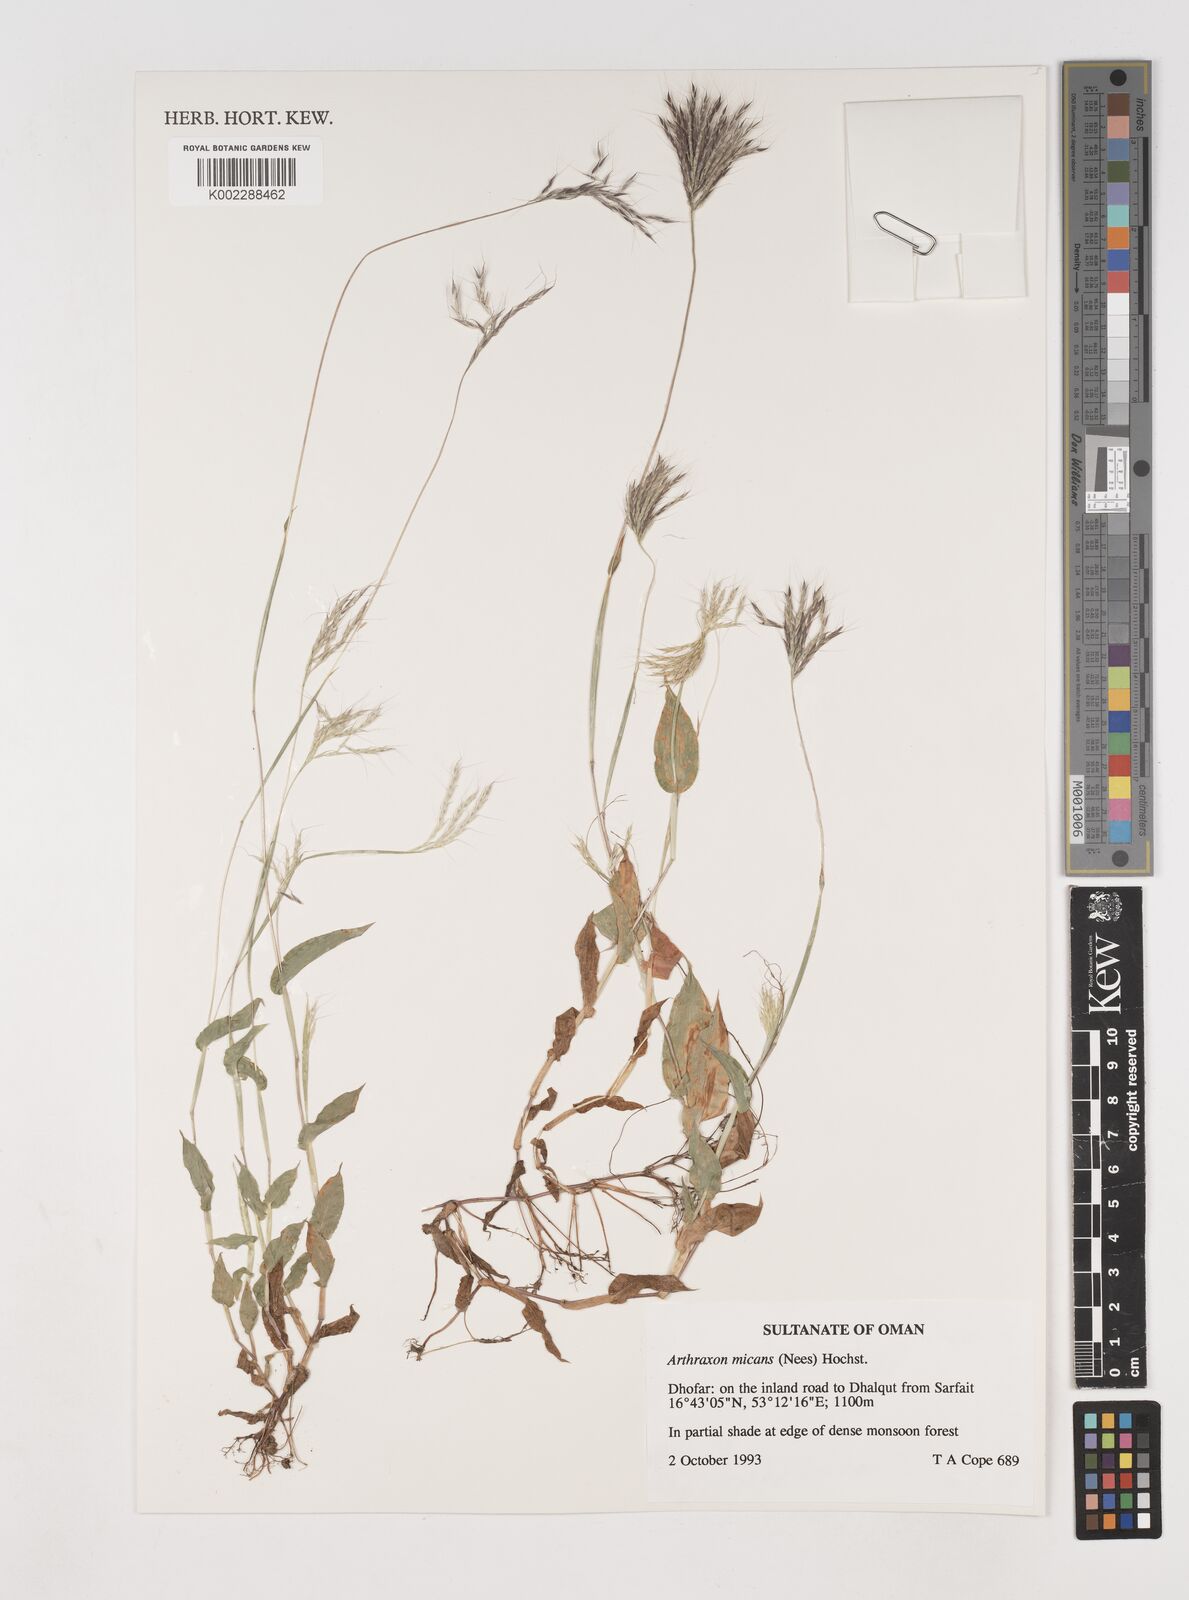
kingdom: Plantae
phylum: Tracheophyta
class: Liliopsida
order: Poales
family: Poaceae
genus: Arthraxon
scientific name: Arthraxon hispidus
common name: Small carpgrass
